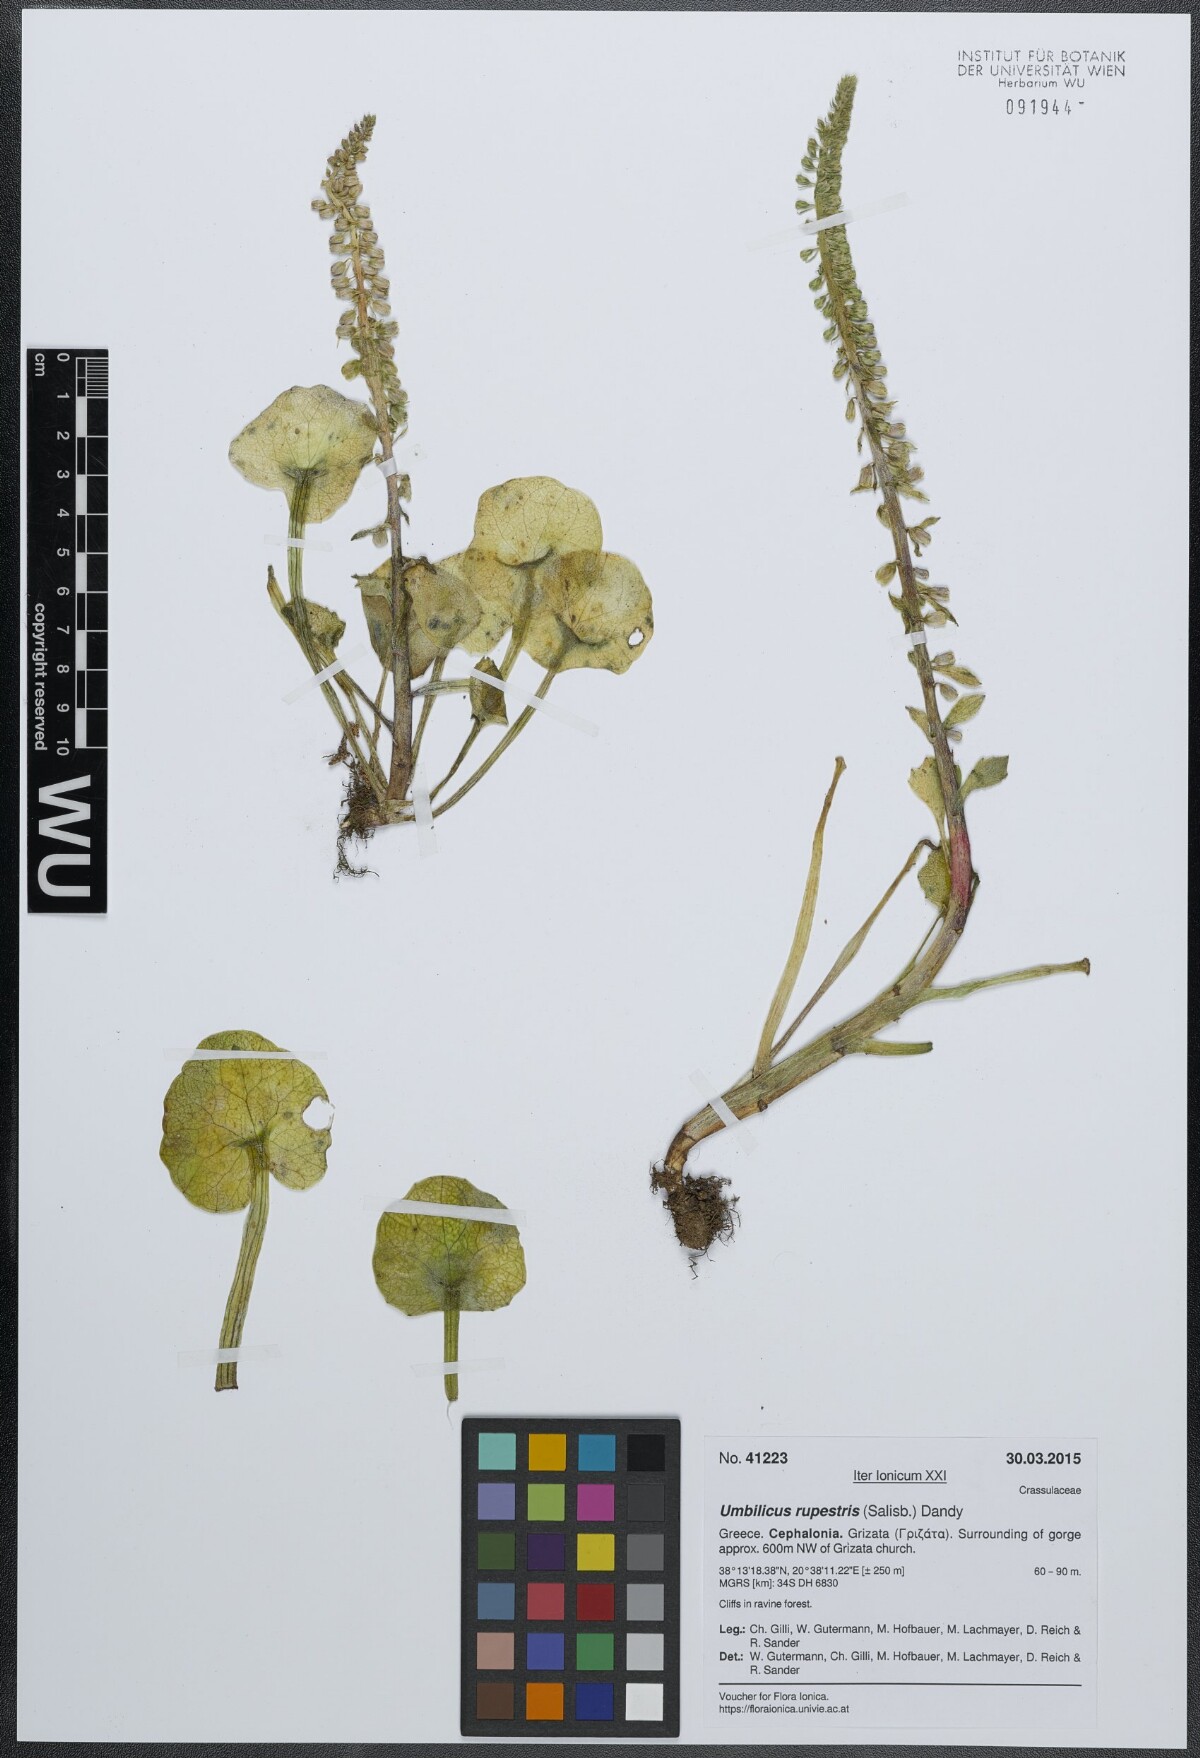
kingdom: Plantae
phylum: Tracheophyta
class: Magnoliopsida
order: Saxifragales
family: Crassulaceae
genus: Umbilicus
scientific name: Umbilicus rupestris
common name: Navelwort
